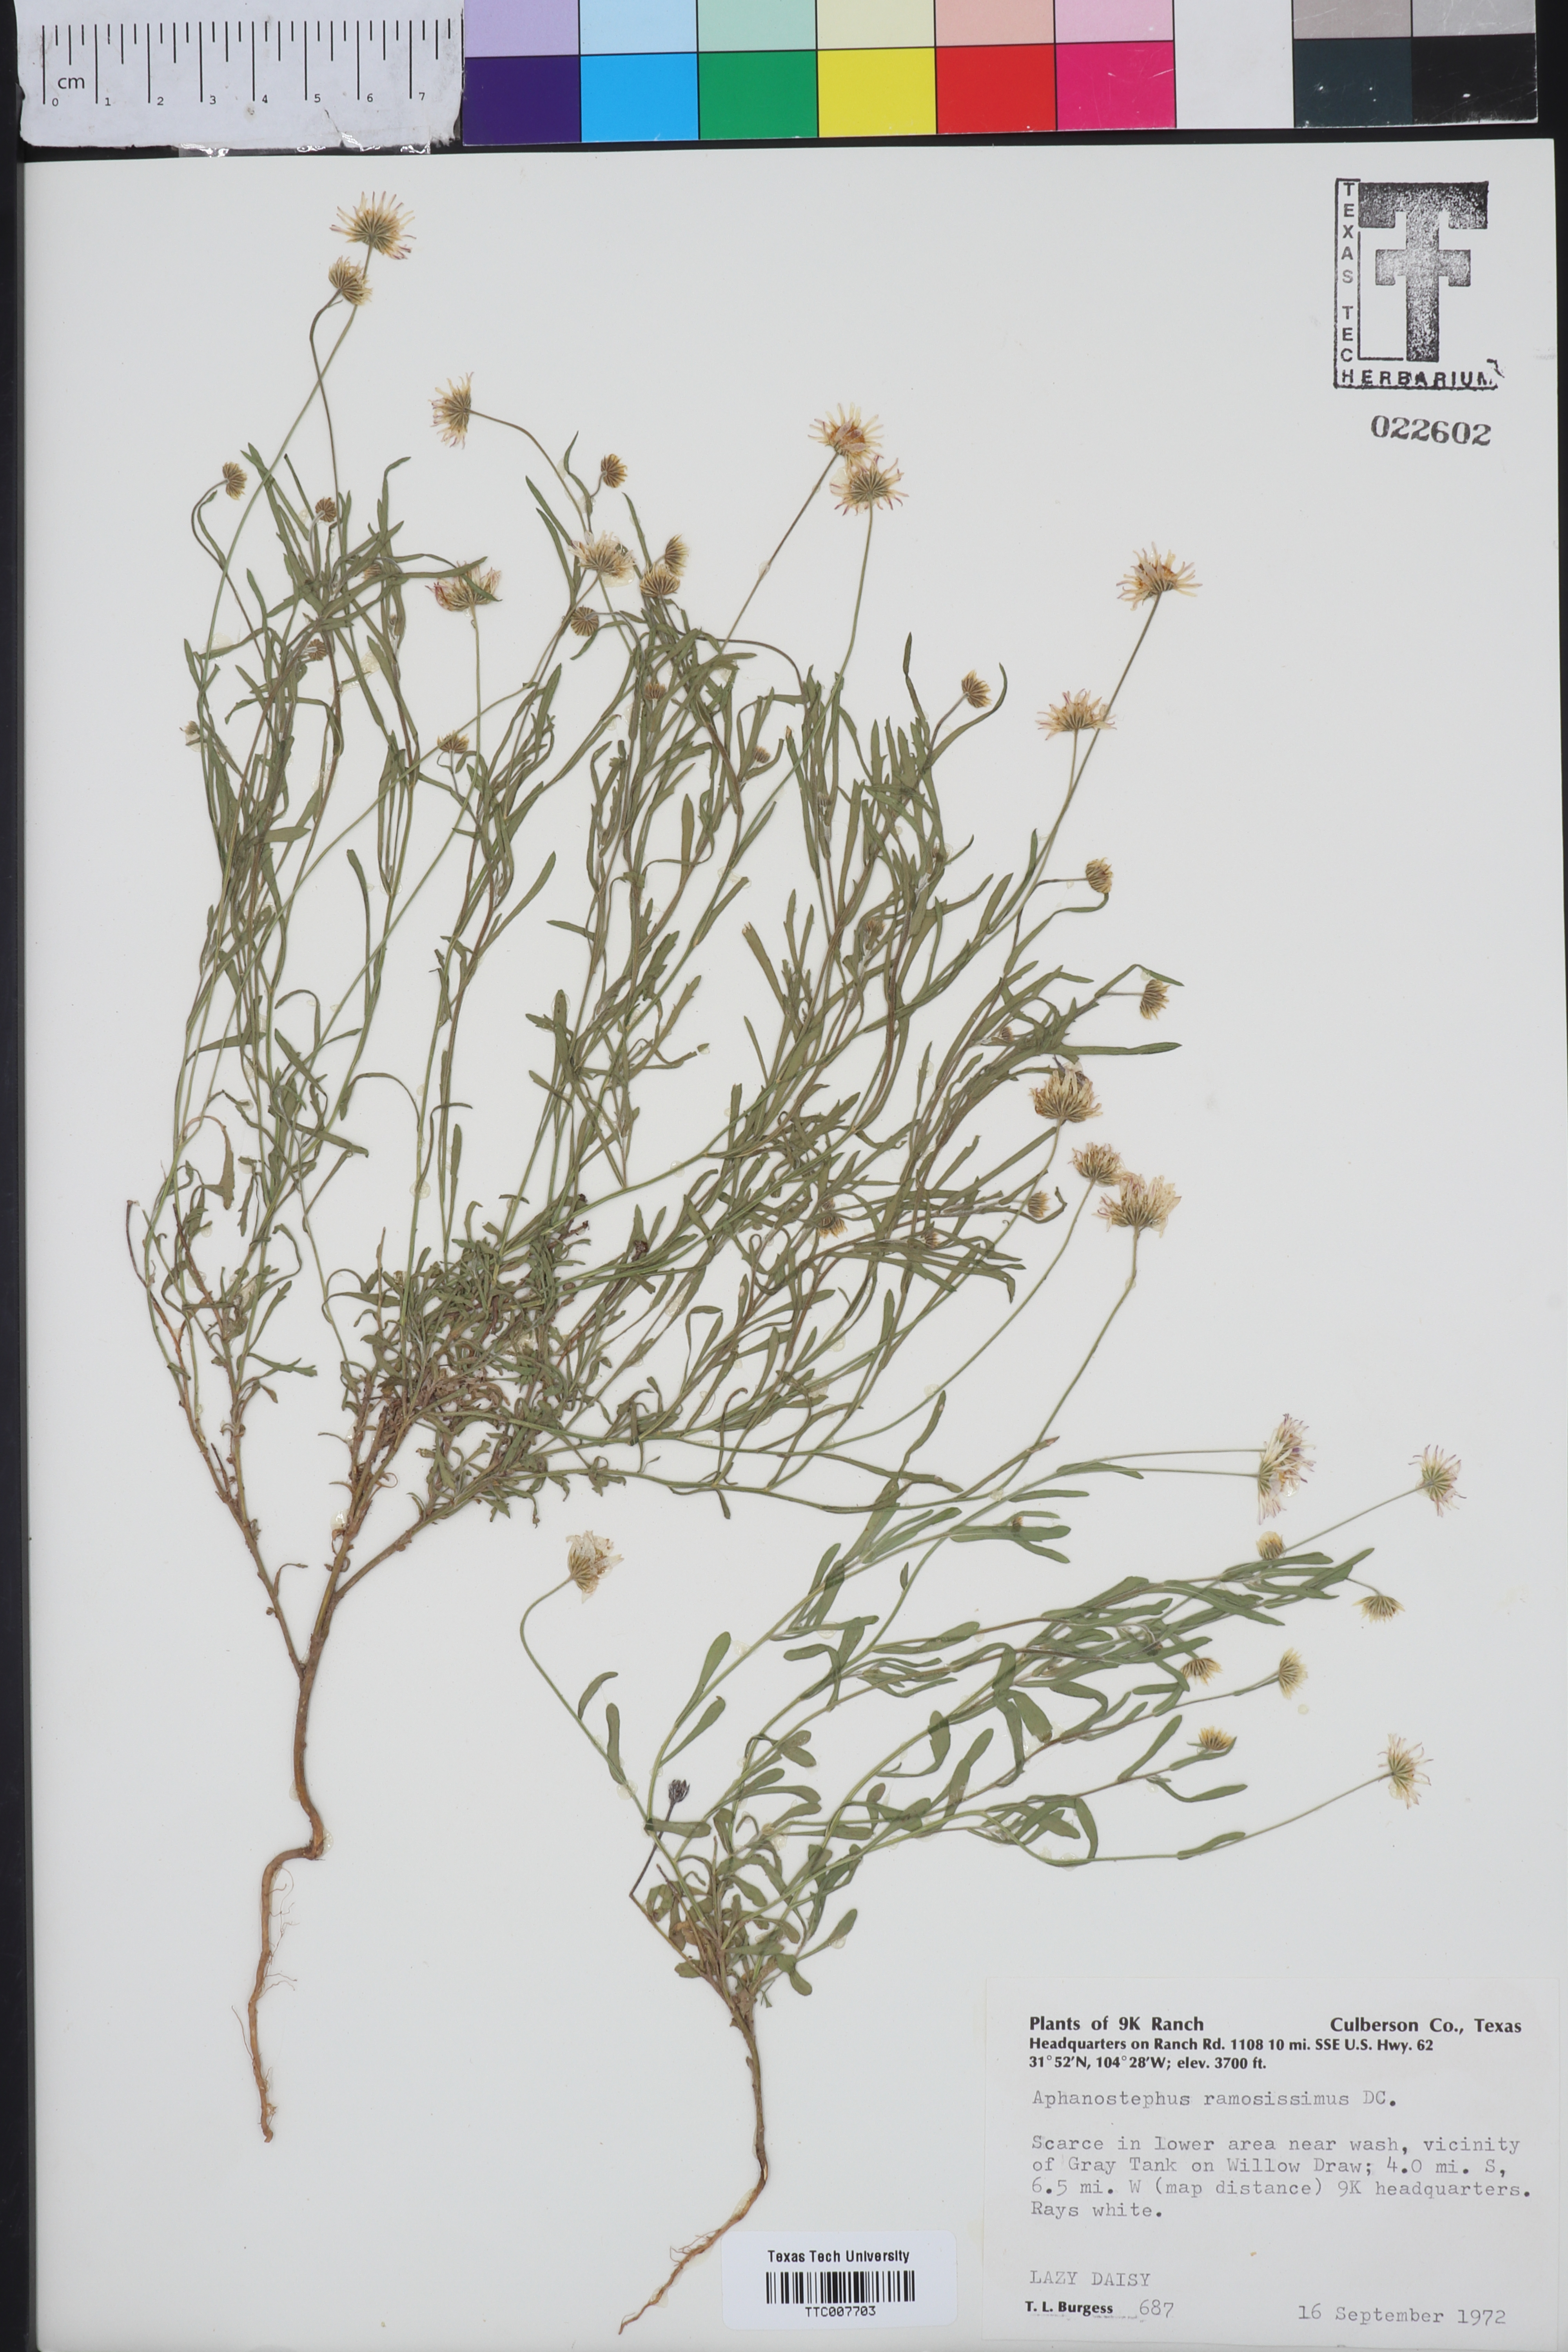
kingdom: Plantae
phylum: Tracheophyta
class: Magnoliopsida
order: Asterales
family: Asteraceae
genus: Aphanostephus
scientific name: Aphanostephus ramosissimus
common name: Plains lazy daisy
